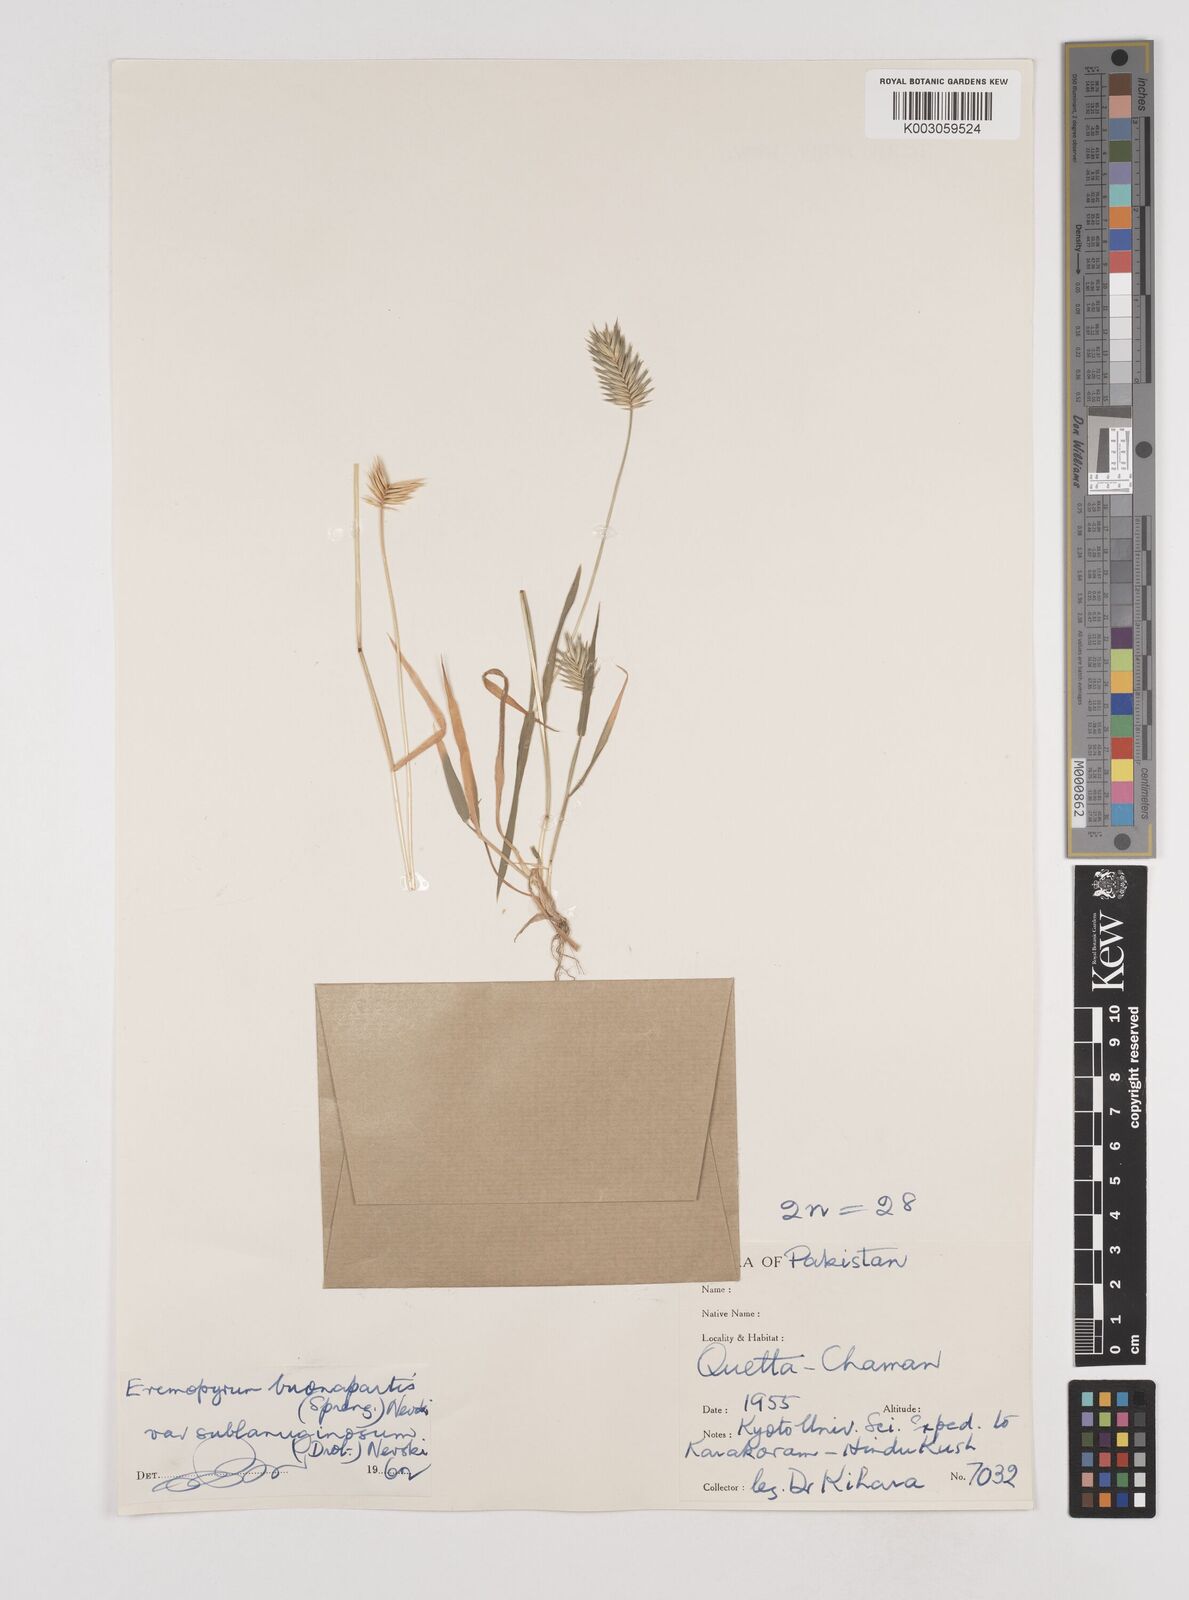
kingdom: Plantae
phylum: Tracheophyta
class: Liliopsida
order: Poales
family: Poaceae
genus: Eremopyrum
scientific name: Eremopyrum bonaepartis
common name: Tapertip false wheatgrass
